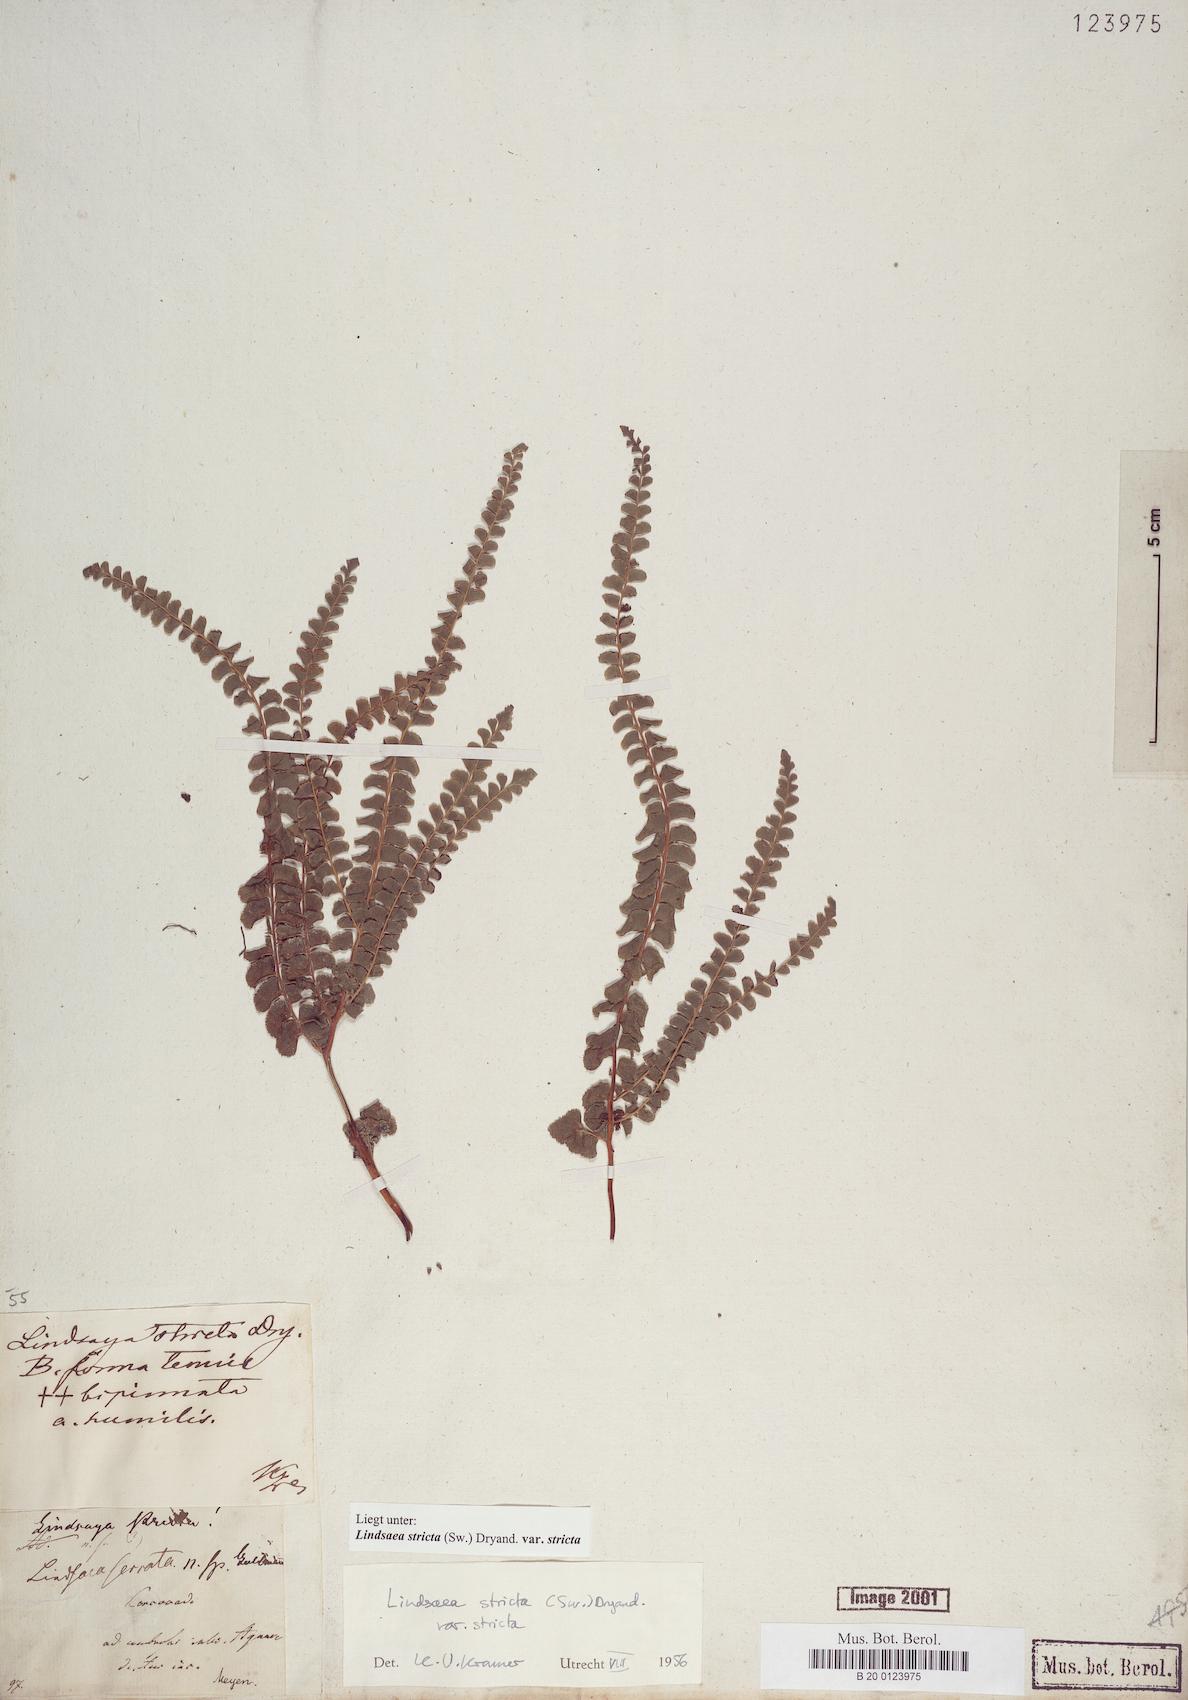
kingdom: Plantae
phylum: Tracheophyta
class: Polypodiopsida
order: Polypodiales
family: Lindsaeaceae
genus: Lindsaea
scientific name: Lindsaea stricta
